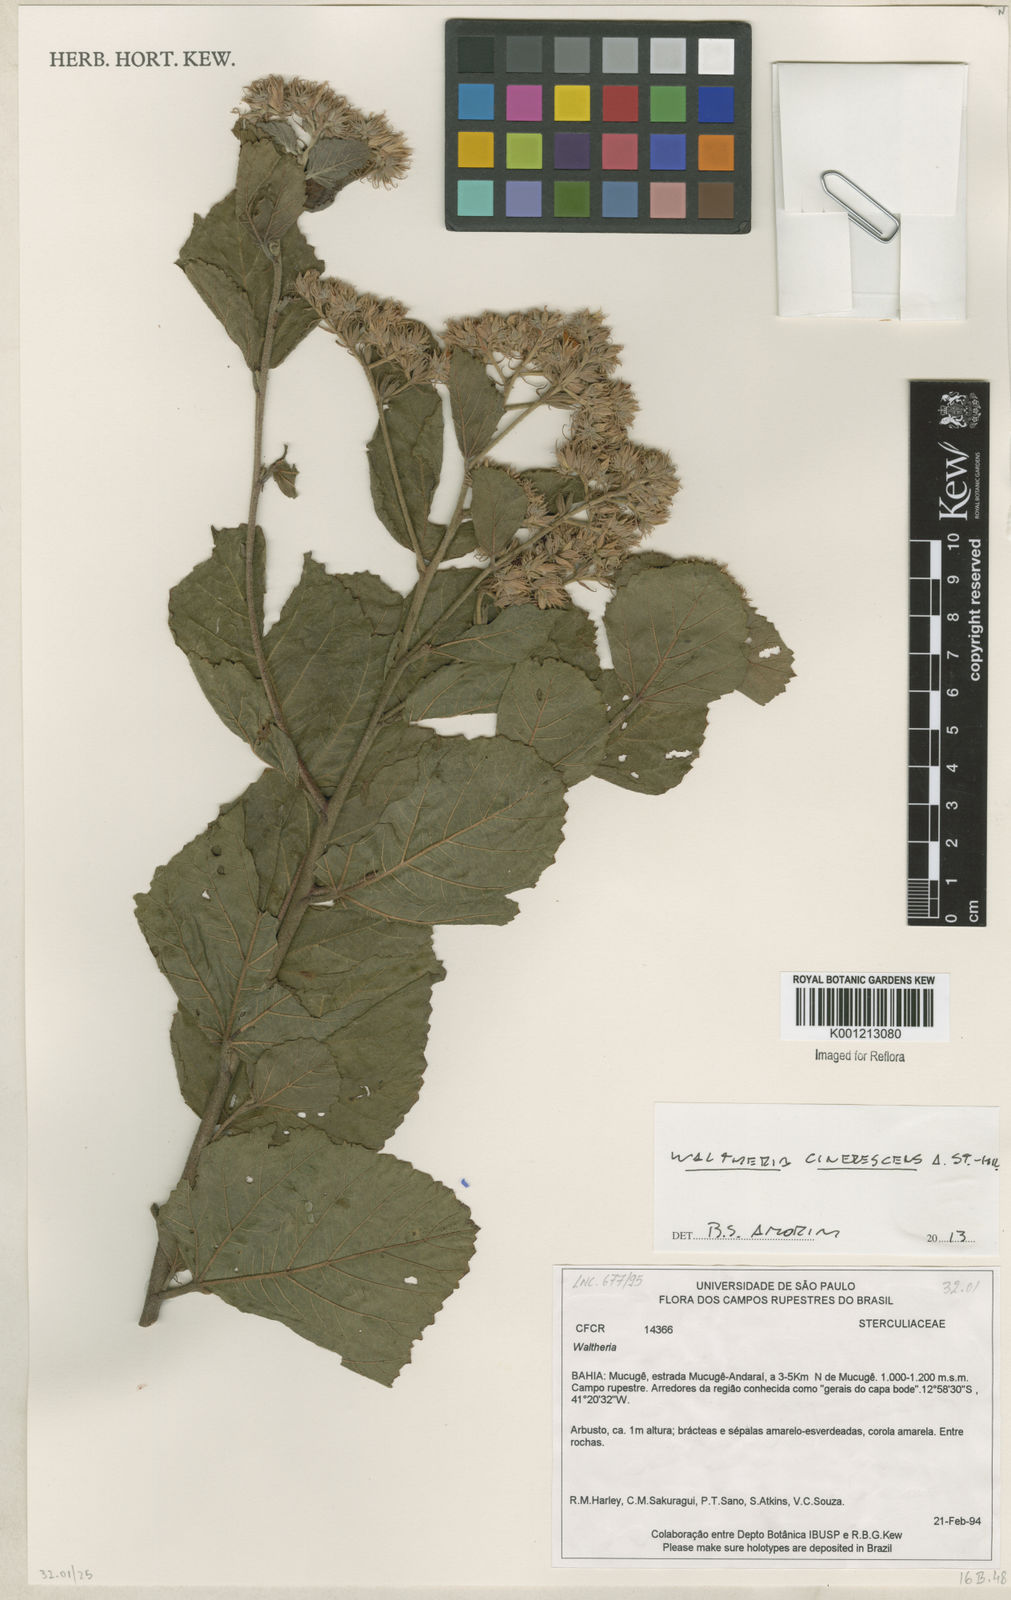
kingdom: Plantae
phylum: Tracheophyta
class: Magnoliopsida
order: Malvales
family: Malvaceae
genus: Waltheria
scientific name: Waltheria cinerescens
